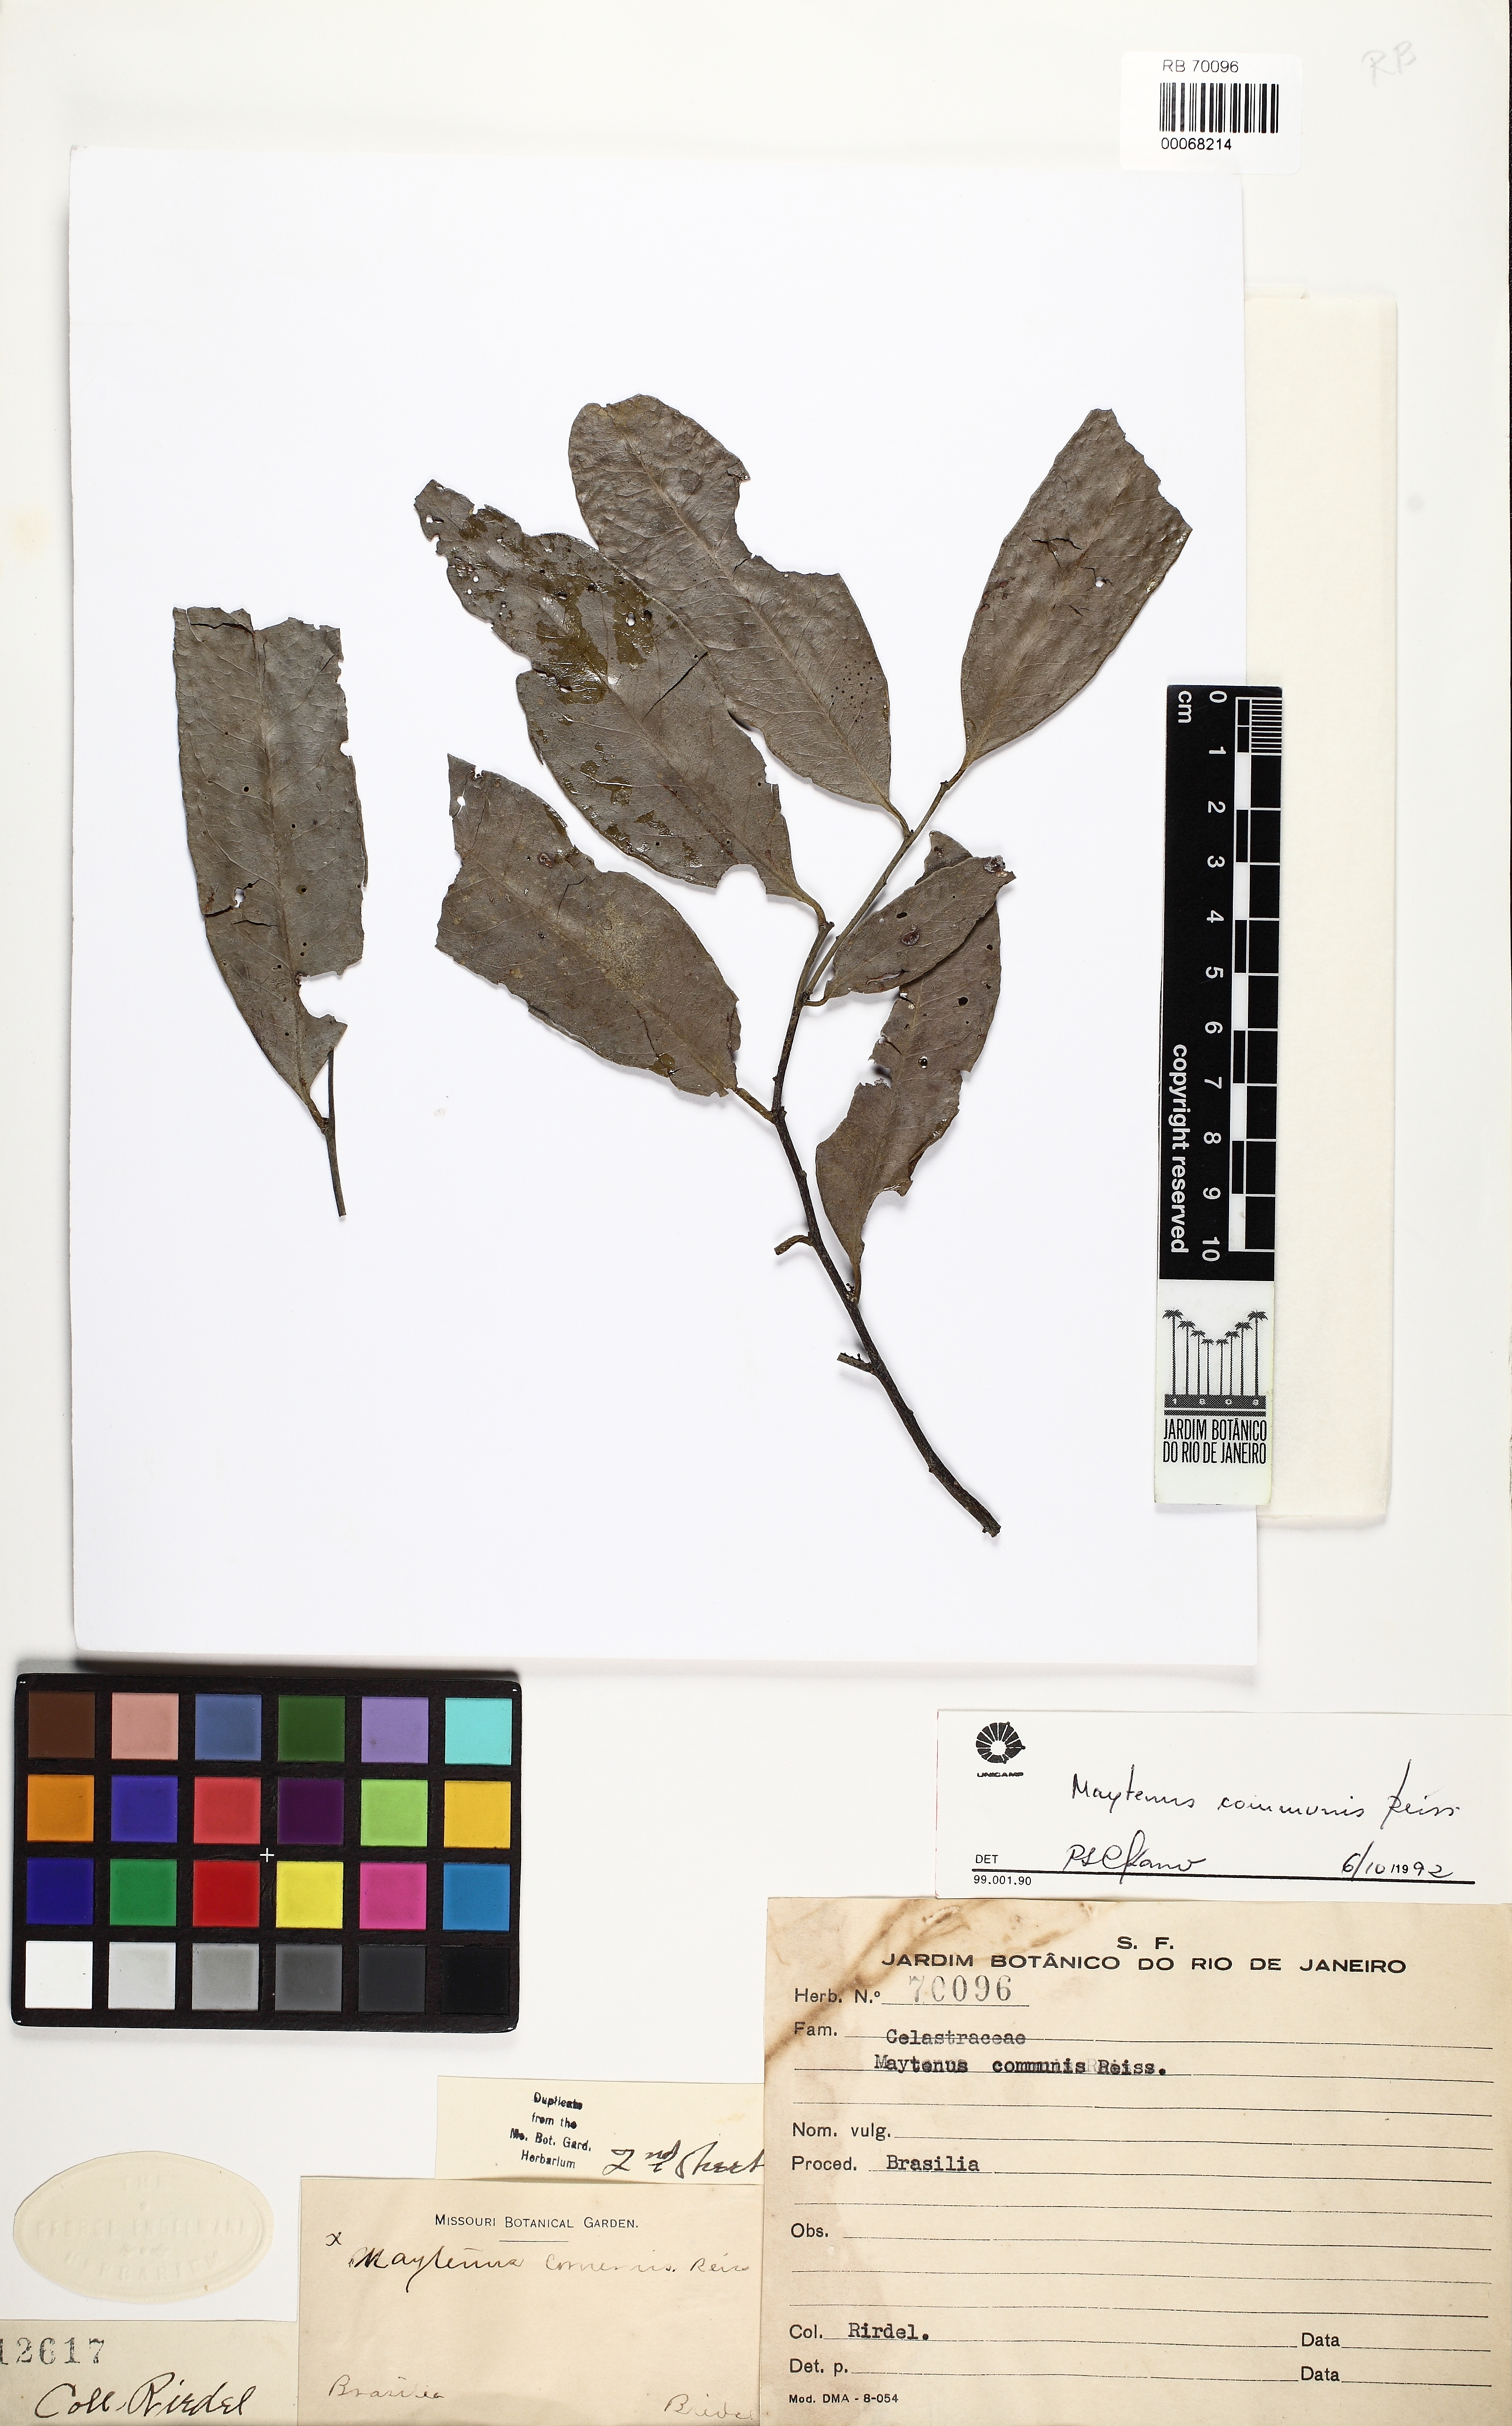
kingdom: Plantae
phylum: Tracheophyta
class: Magnoliopsida
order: Celastrales
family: Celastraceae
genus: Monteverdia
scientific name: Monteverdia communis
